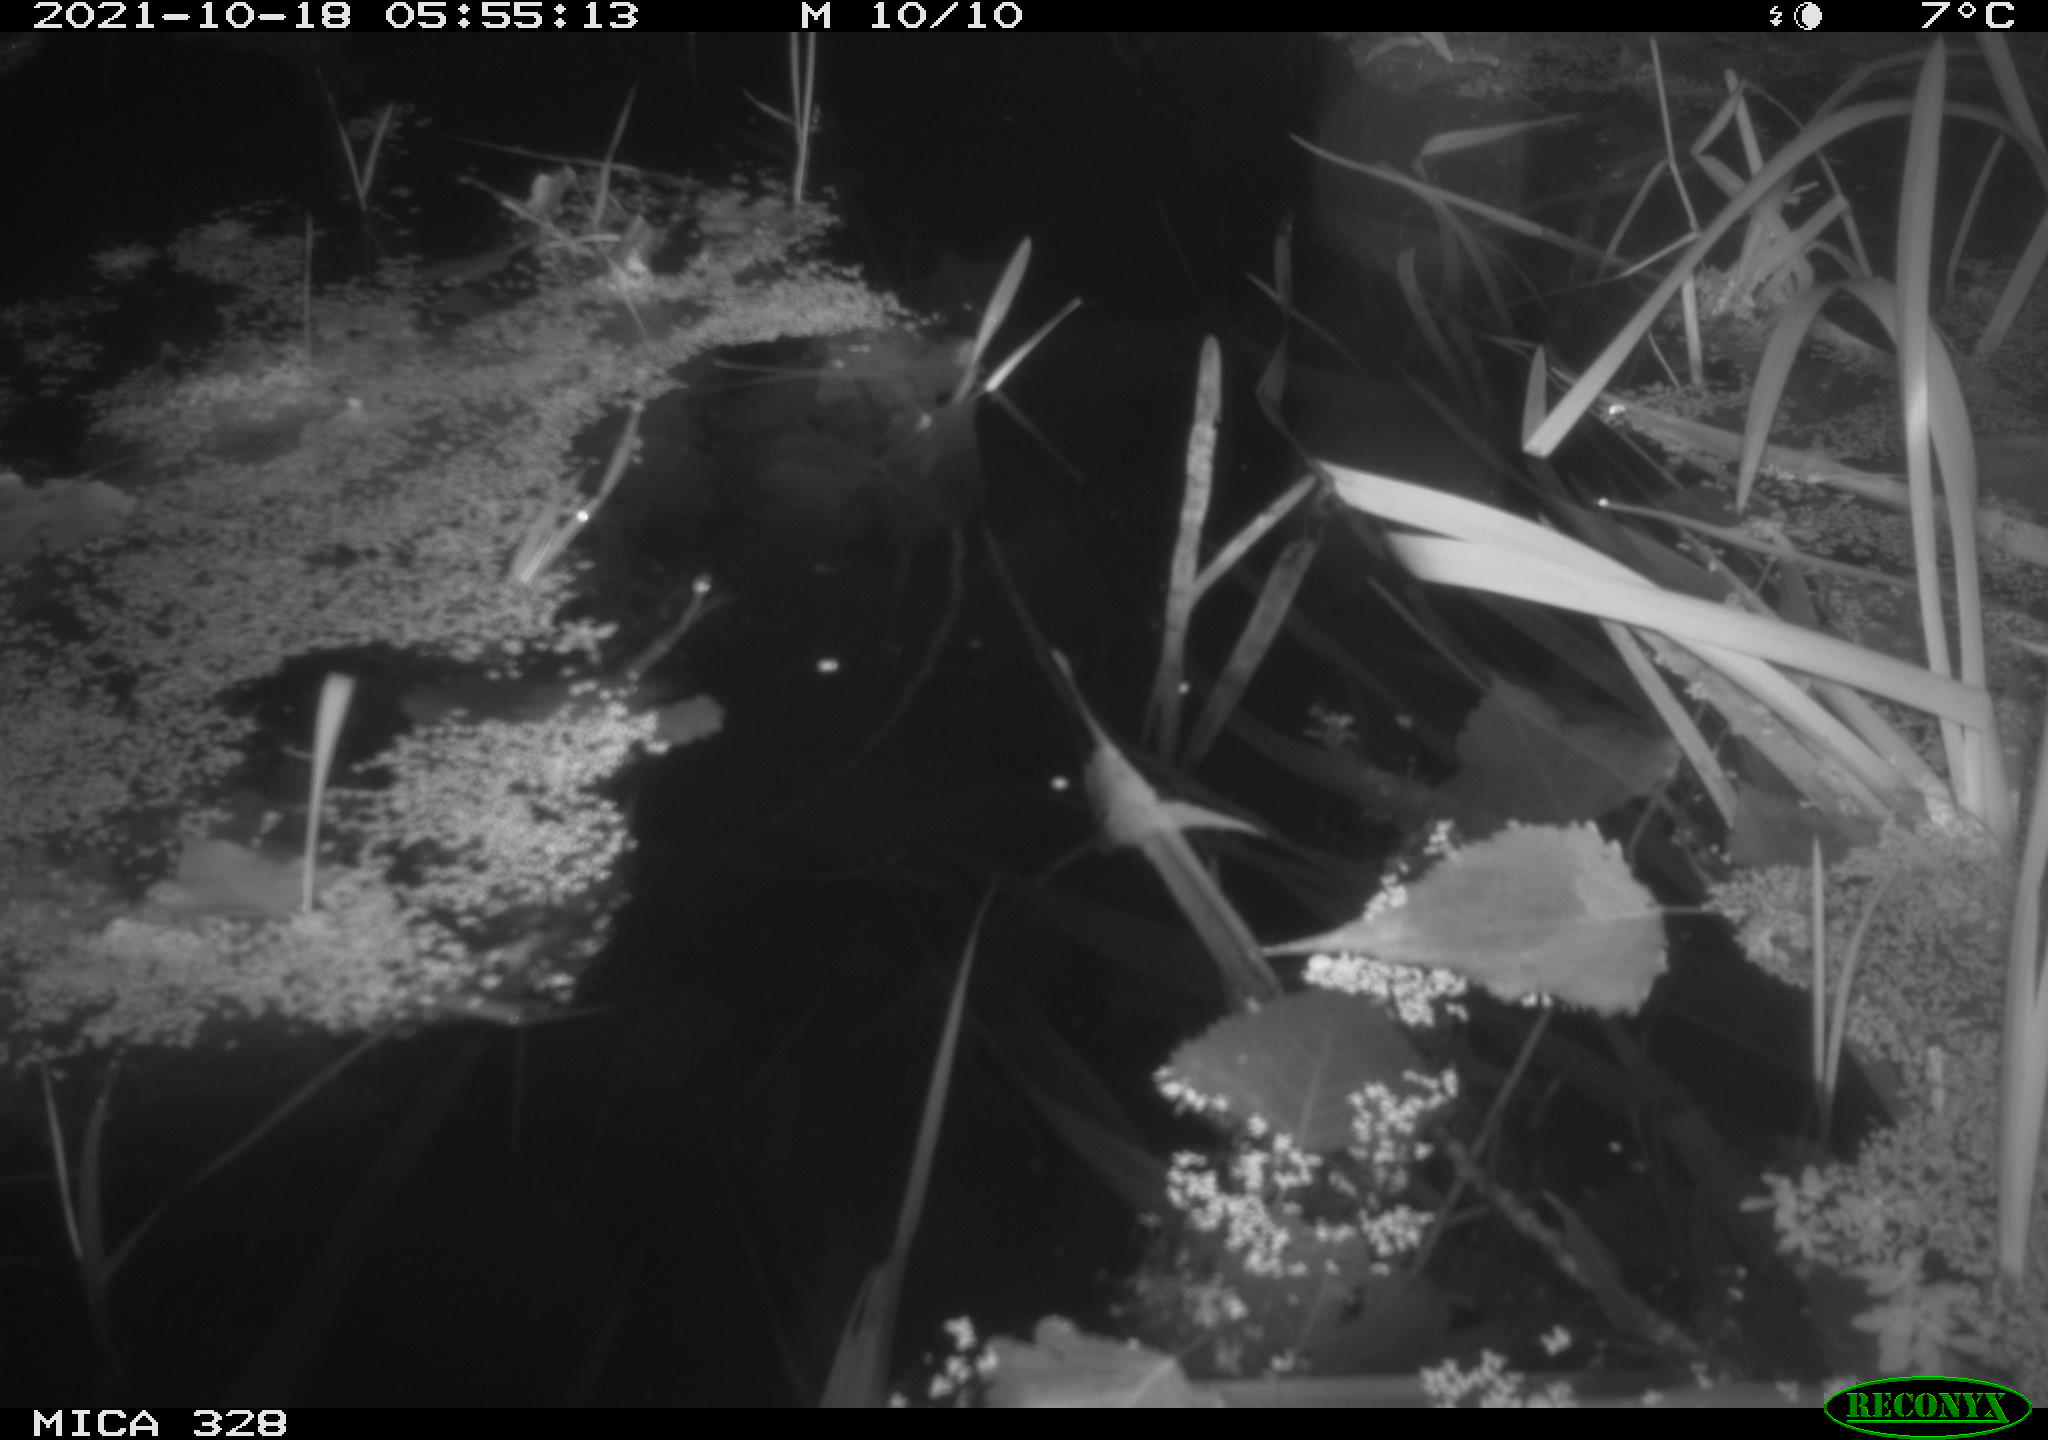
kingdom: Animalia
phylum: Chordata
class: Mammalia
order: Rodentia
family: Cricetidae
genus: Ondatra
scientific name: Ondatra zibethicus
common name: Muskrat
